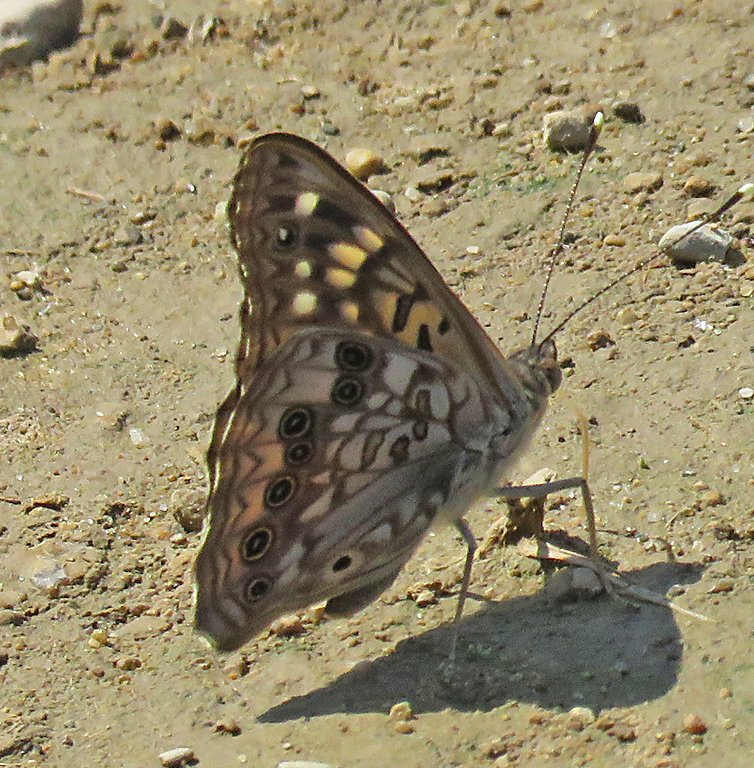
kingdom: Animalia
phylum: Arthropoda
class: Insecta
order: Lepidoptera
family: Nymphalidae
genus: Asterocampa
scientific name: Asterocampa celtis
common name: Hackberry Emperor
